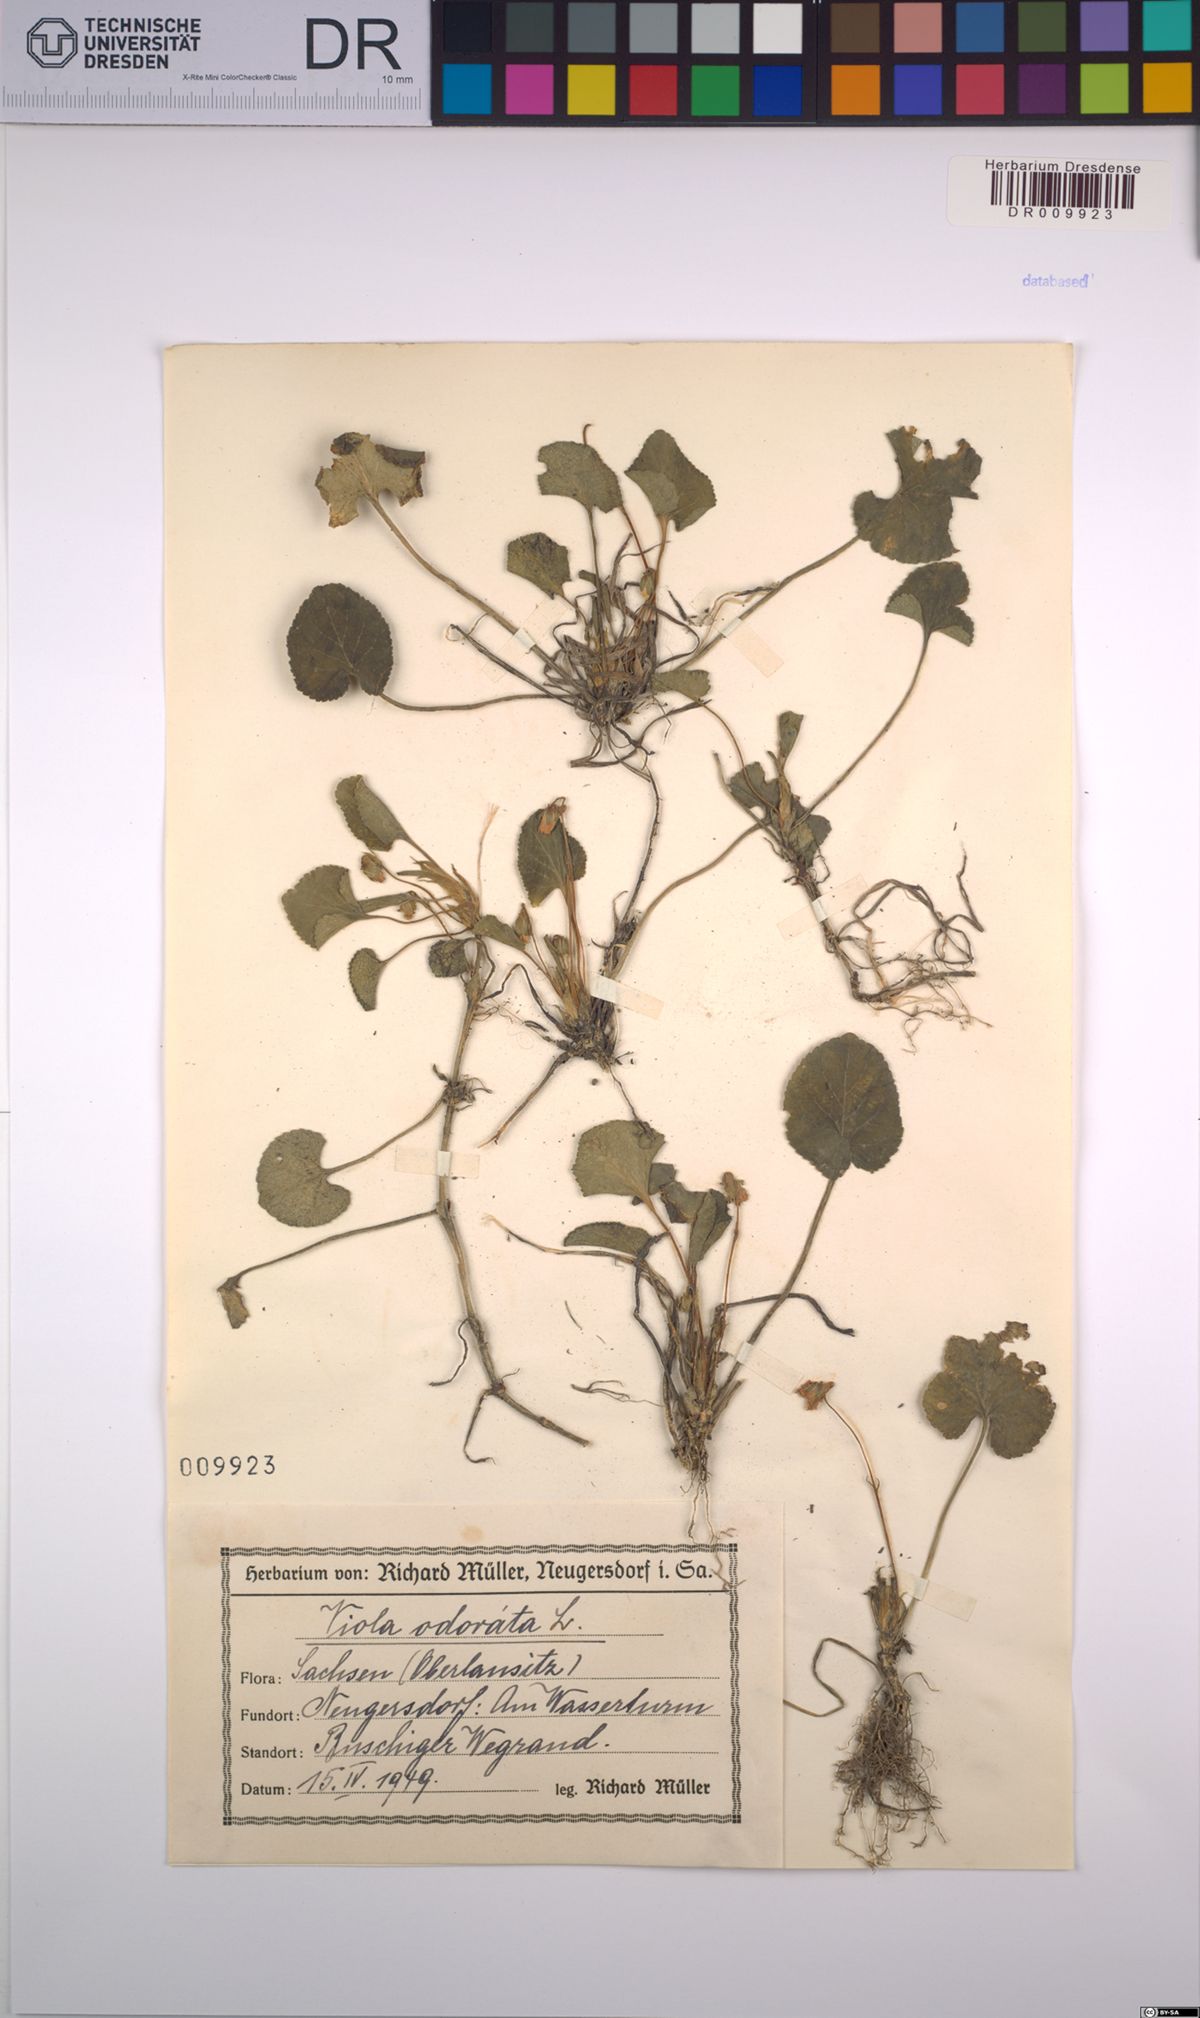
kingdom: Plantae
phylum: Tracheophyta
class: Magnoliopsida
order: Malpighiales
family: Violaceae
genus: Viola
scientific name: Viola odorata
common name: Sweet violet
